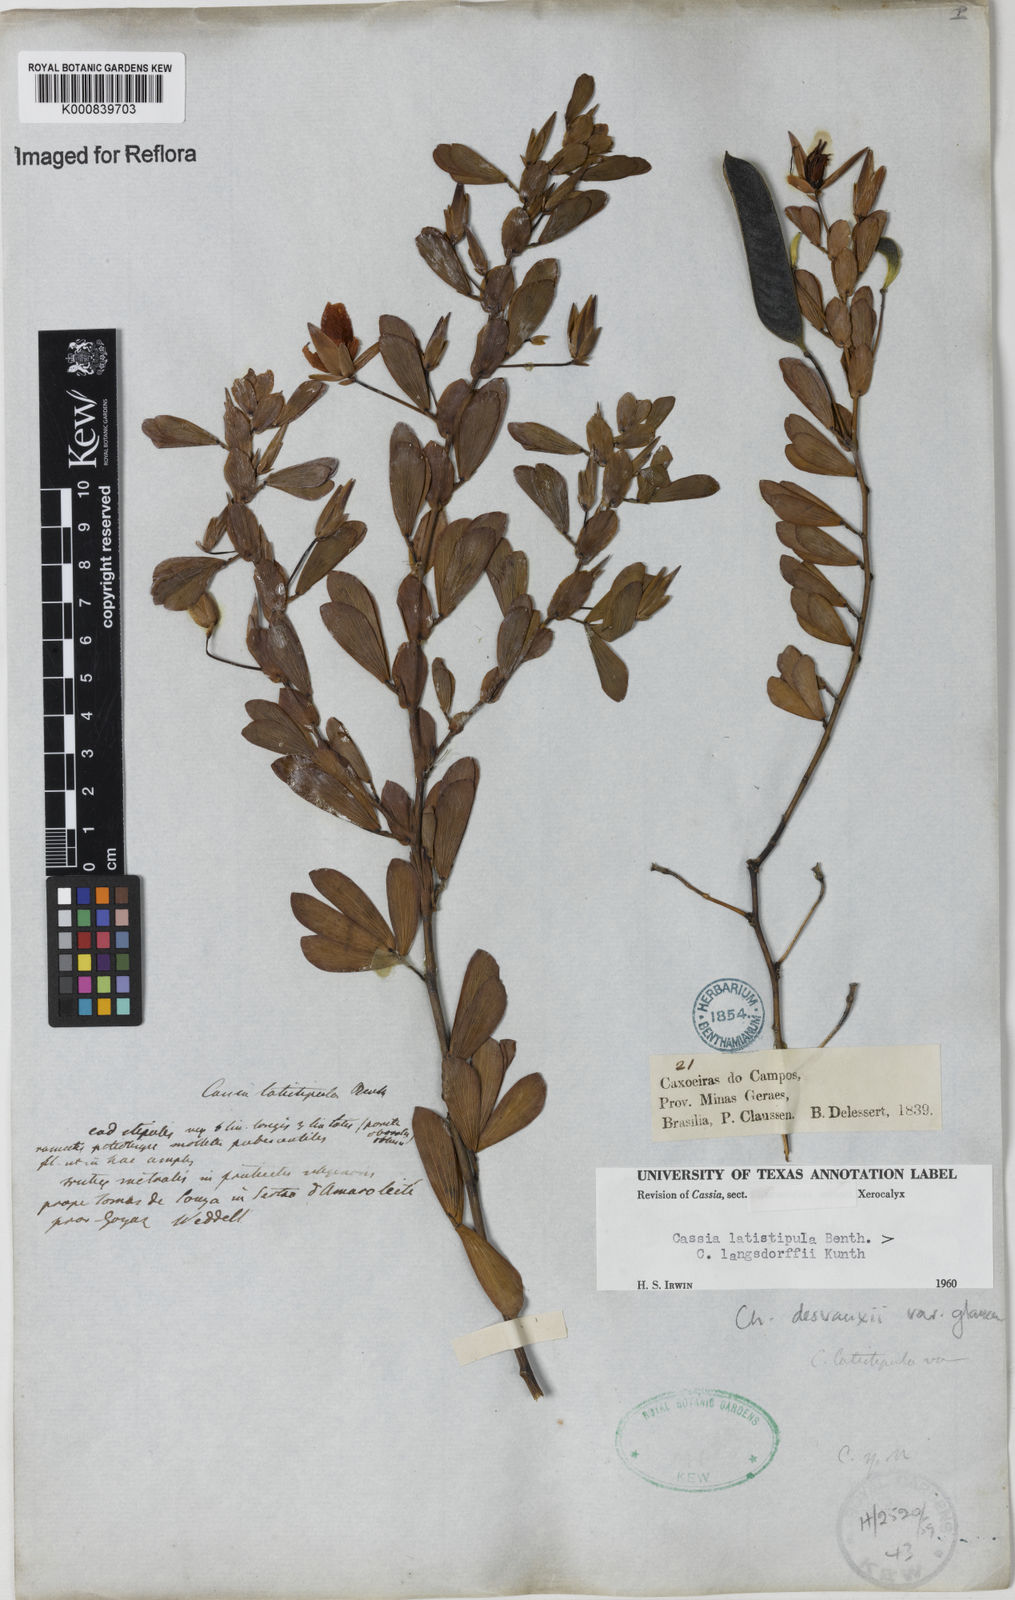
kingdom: Plantae
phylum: Tracheophyta
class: Magnoliopsida
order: Fabales
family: Fabaceae
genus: Chamaecrista
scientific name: Chamaecrista desvauxii
